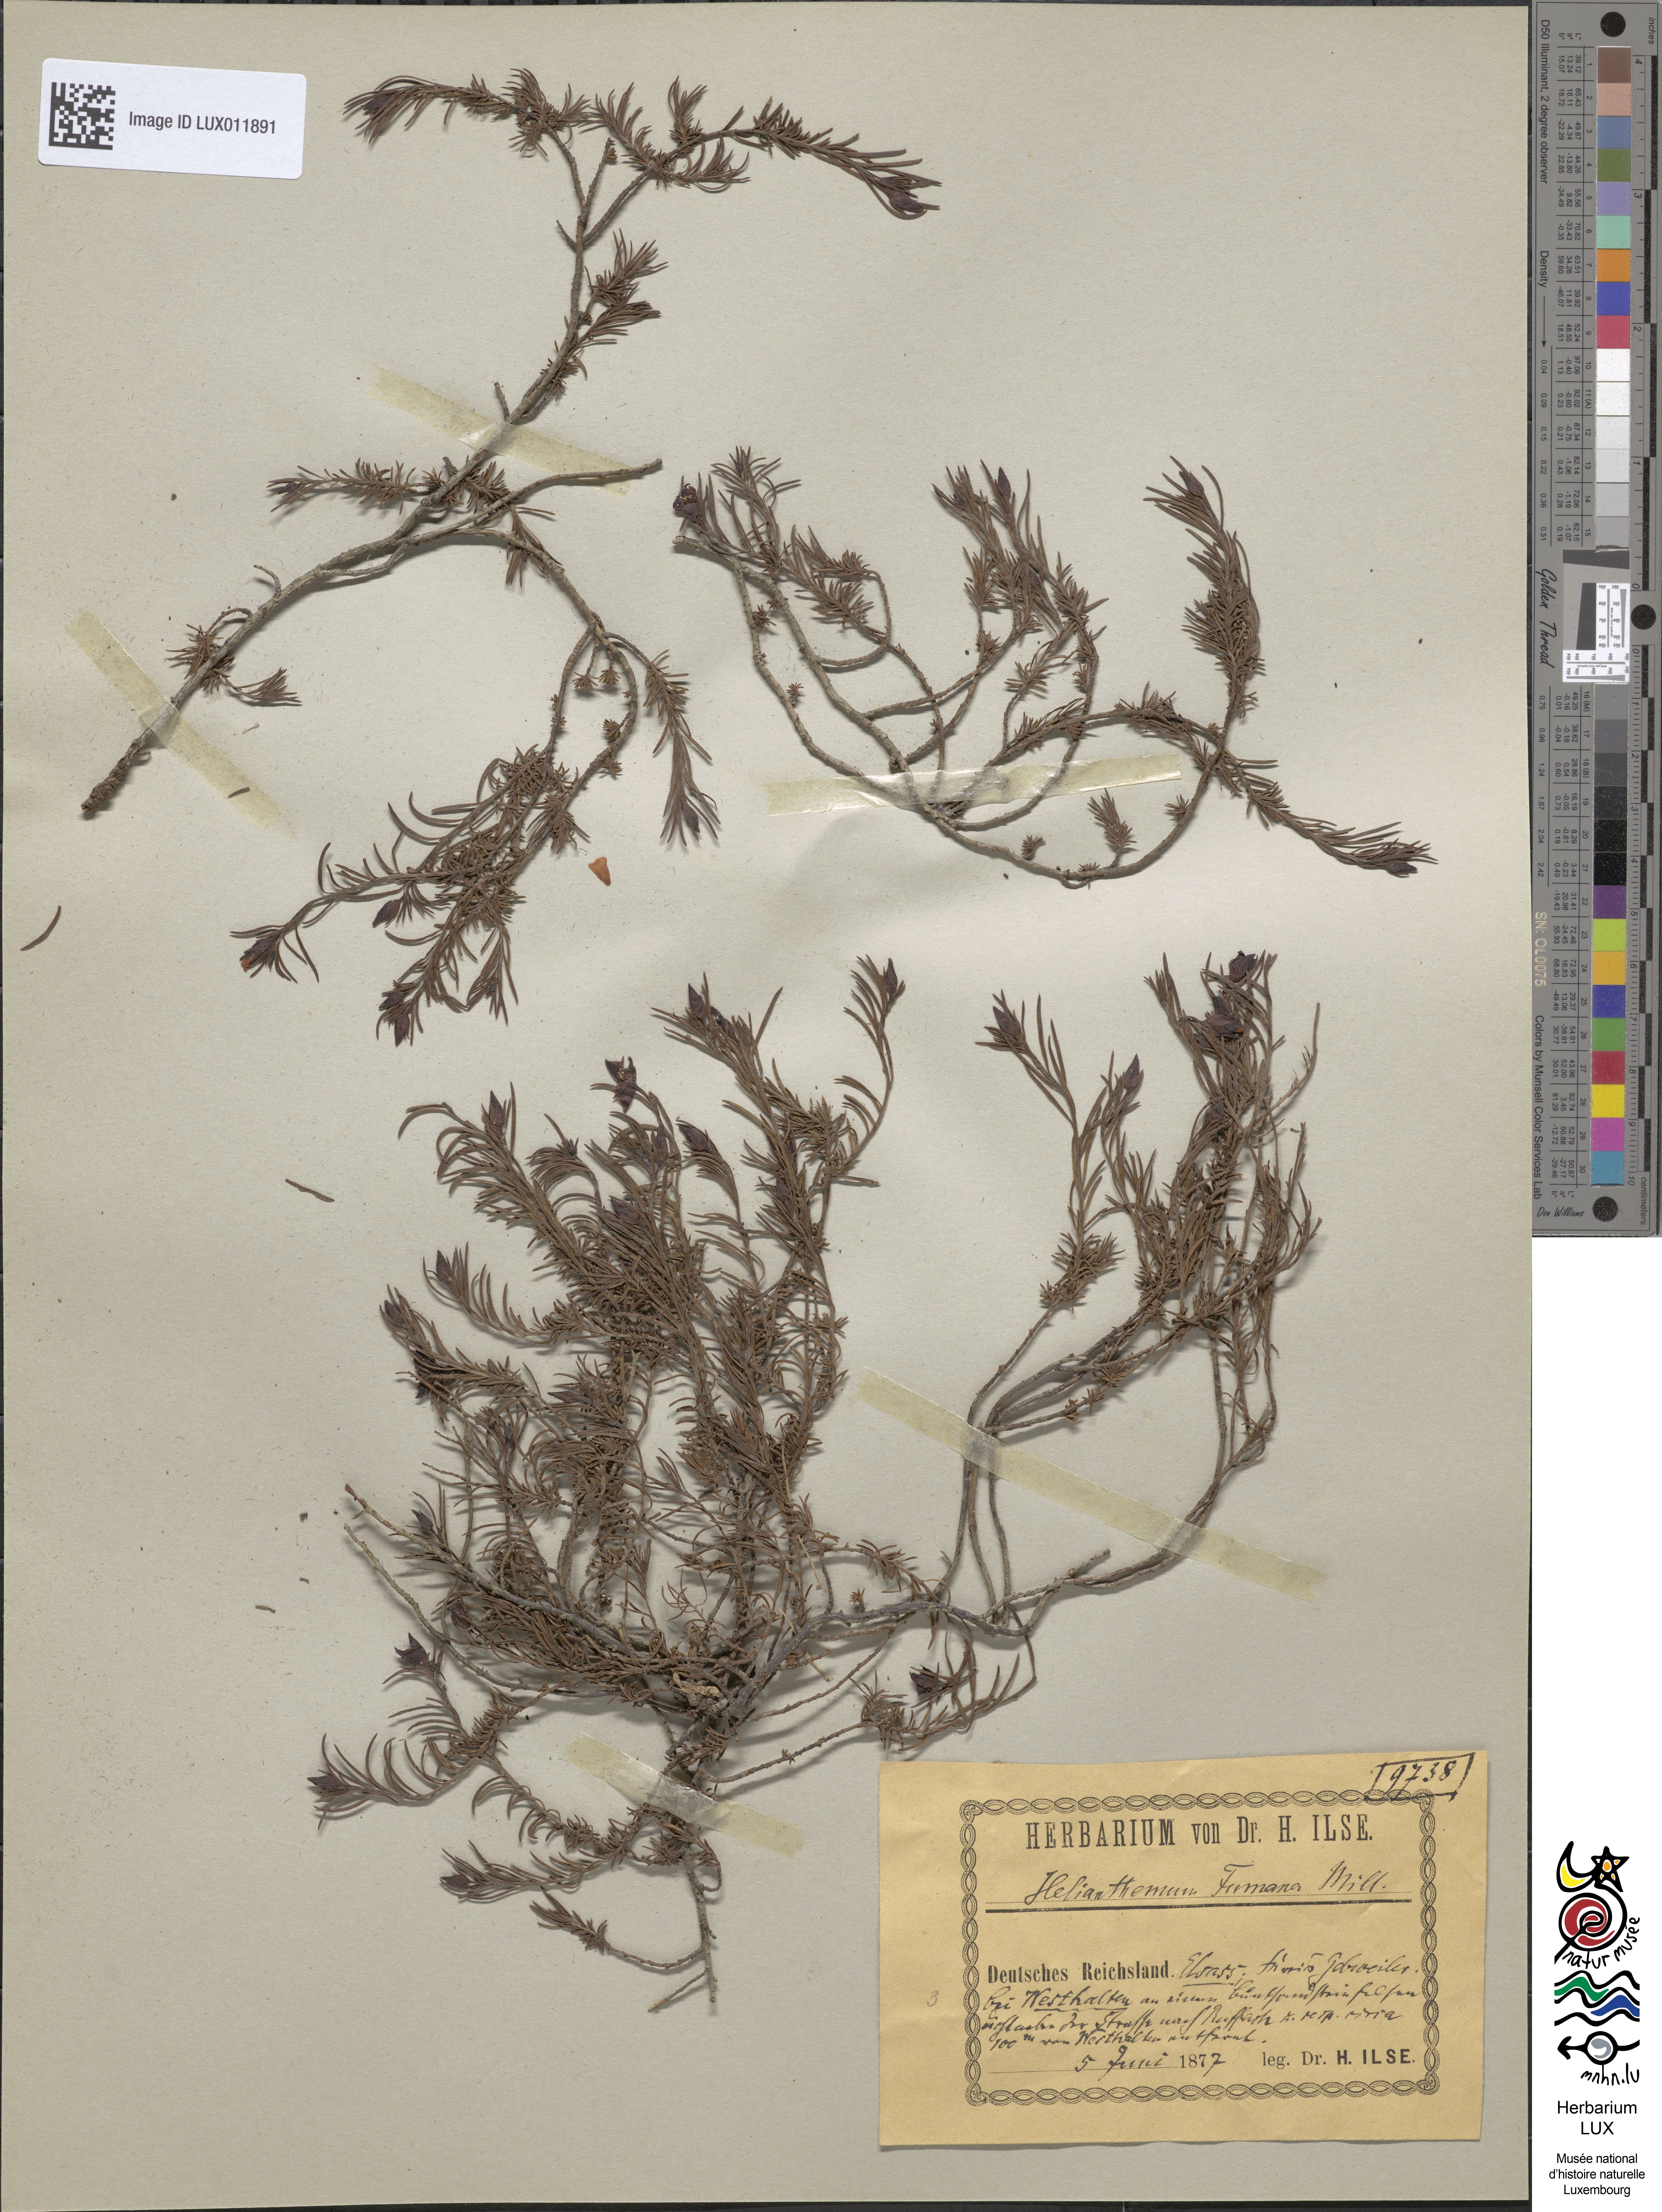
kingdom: Plantae
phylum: Tracheophyta
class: Magnoliopsida
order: Malvales
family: Cistaceae
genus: Fumana
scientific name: Fumana procumbens
